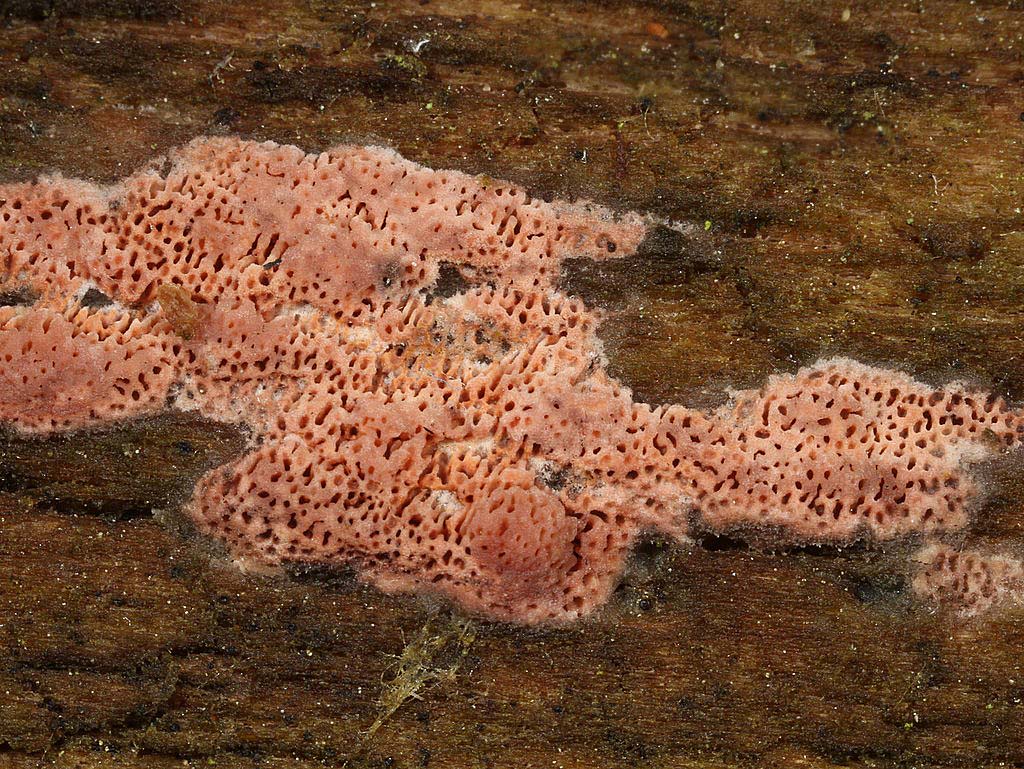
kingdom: Fungi
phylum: Basidiomycota
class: Agaricomycetes
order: Polyporales
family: Irpicaceae
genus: Ceriporia
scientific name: Ceriporia purpurea
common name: purpur-voksporesvamp
